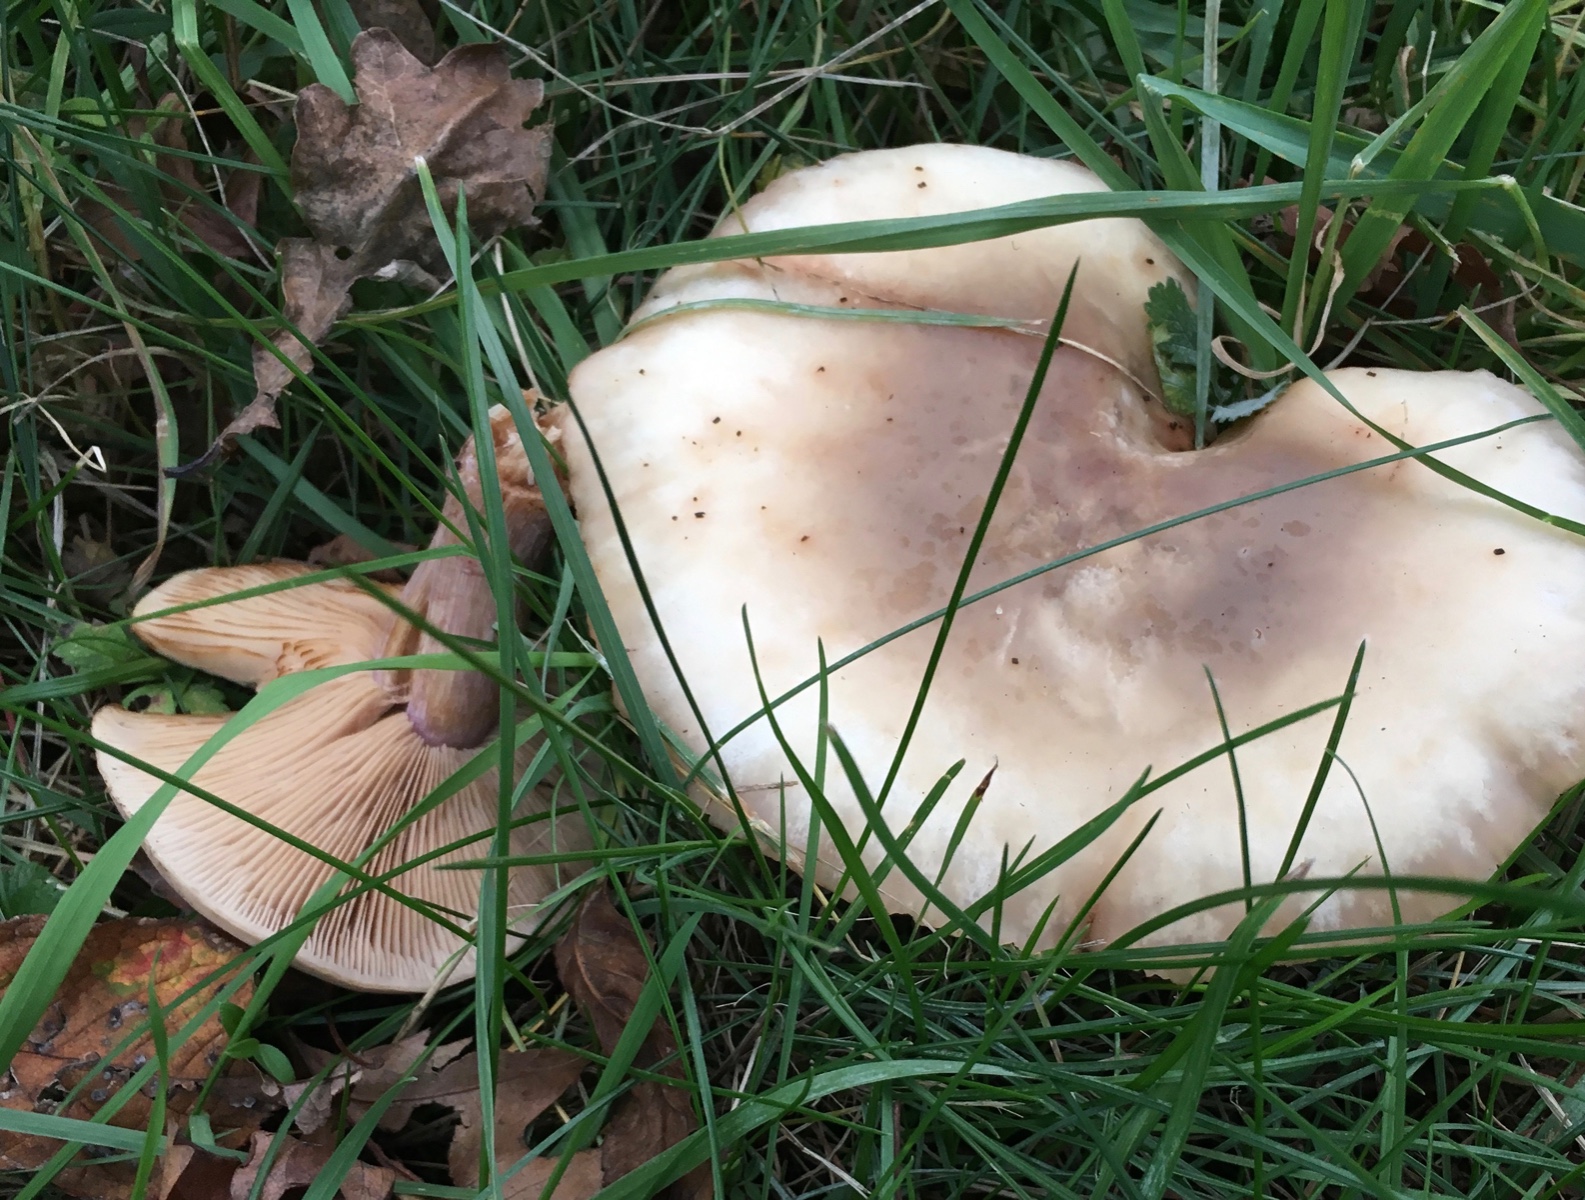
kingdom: Fungi
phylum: Basidiomycota
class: Agaricomycetes
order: Agaricales
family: Tricholomataceae
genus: Lepista
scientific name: Lepista personata
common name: bleg hekseringshat
